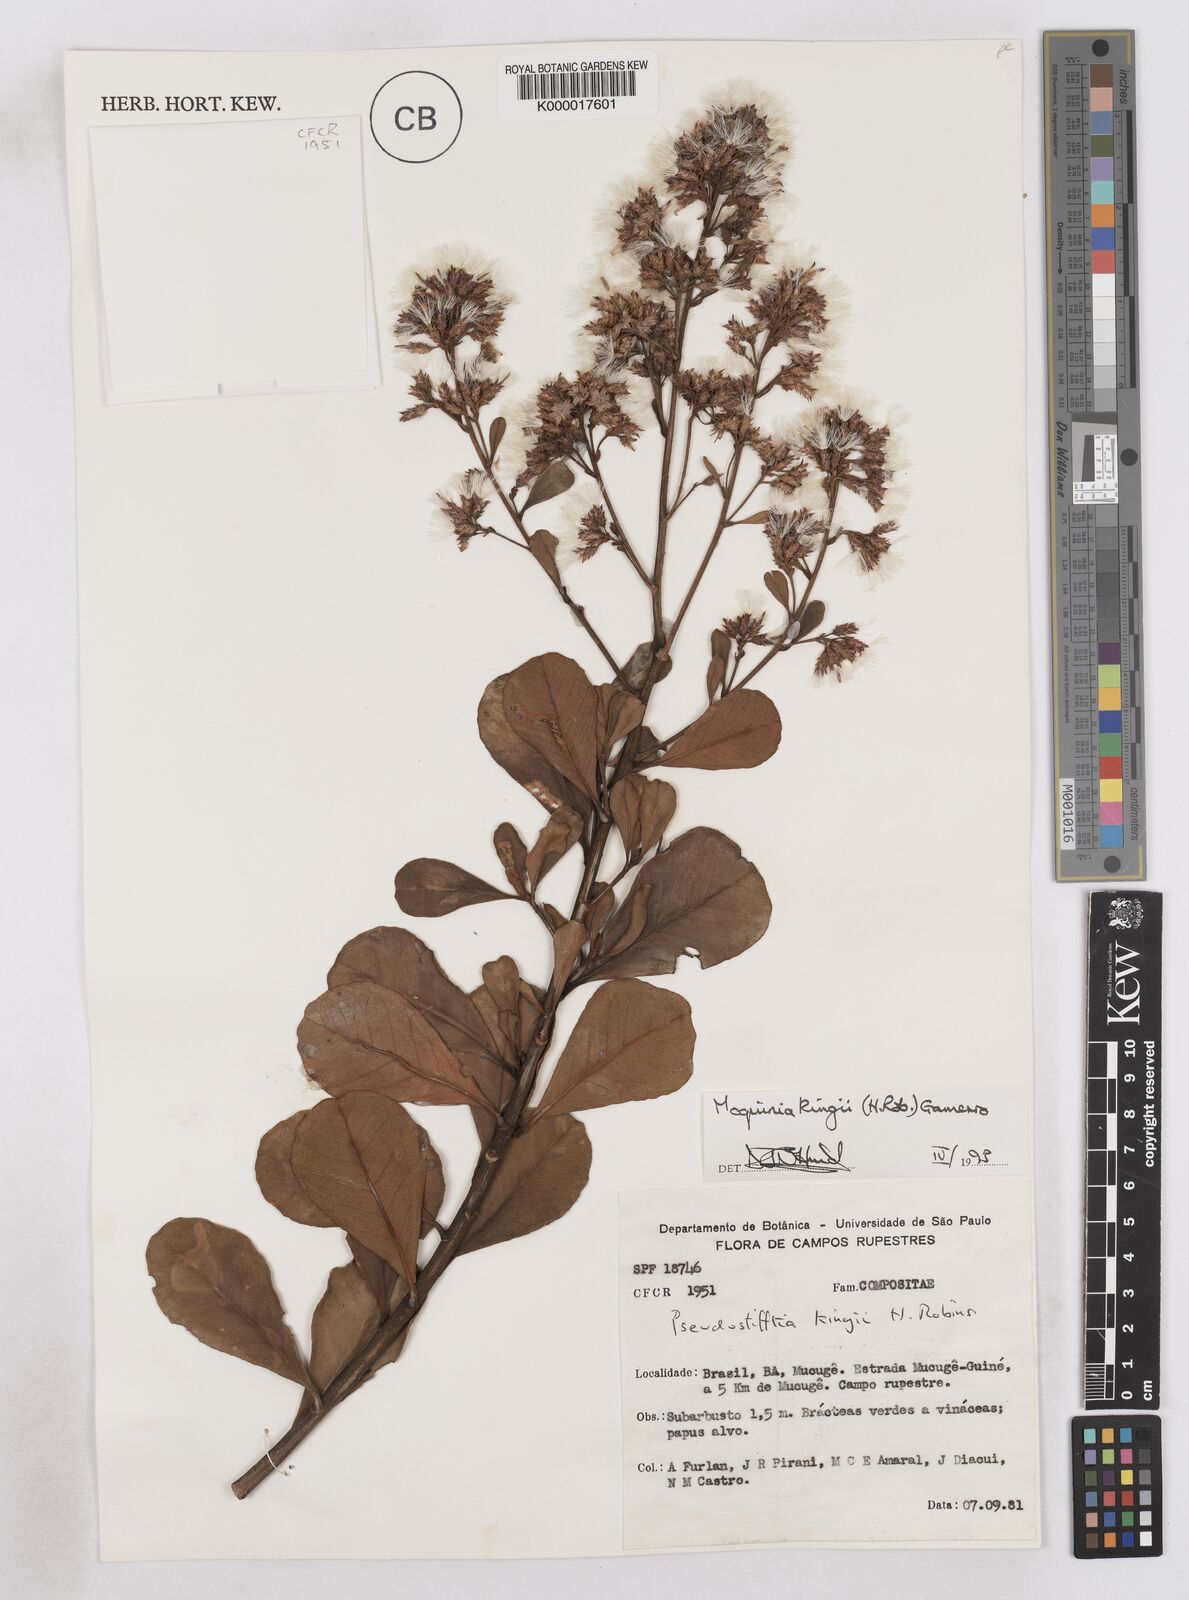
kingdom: Plantae
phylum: Tracheophyta
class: Magnoliopsida
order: Asterales
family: Asteraceae
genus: Pseudostifftia
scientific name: Pseudostifftia kingii
